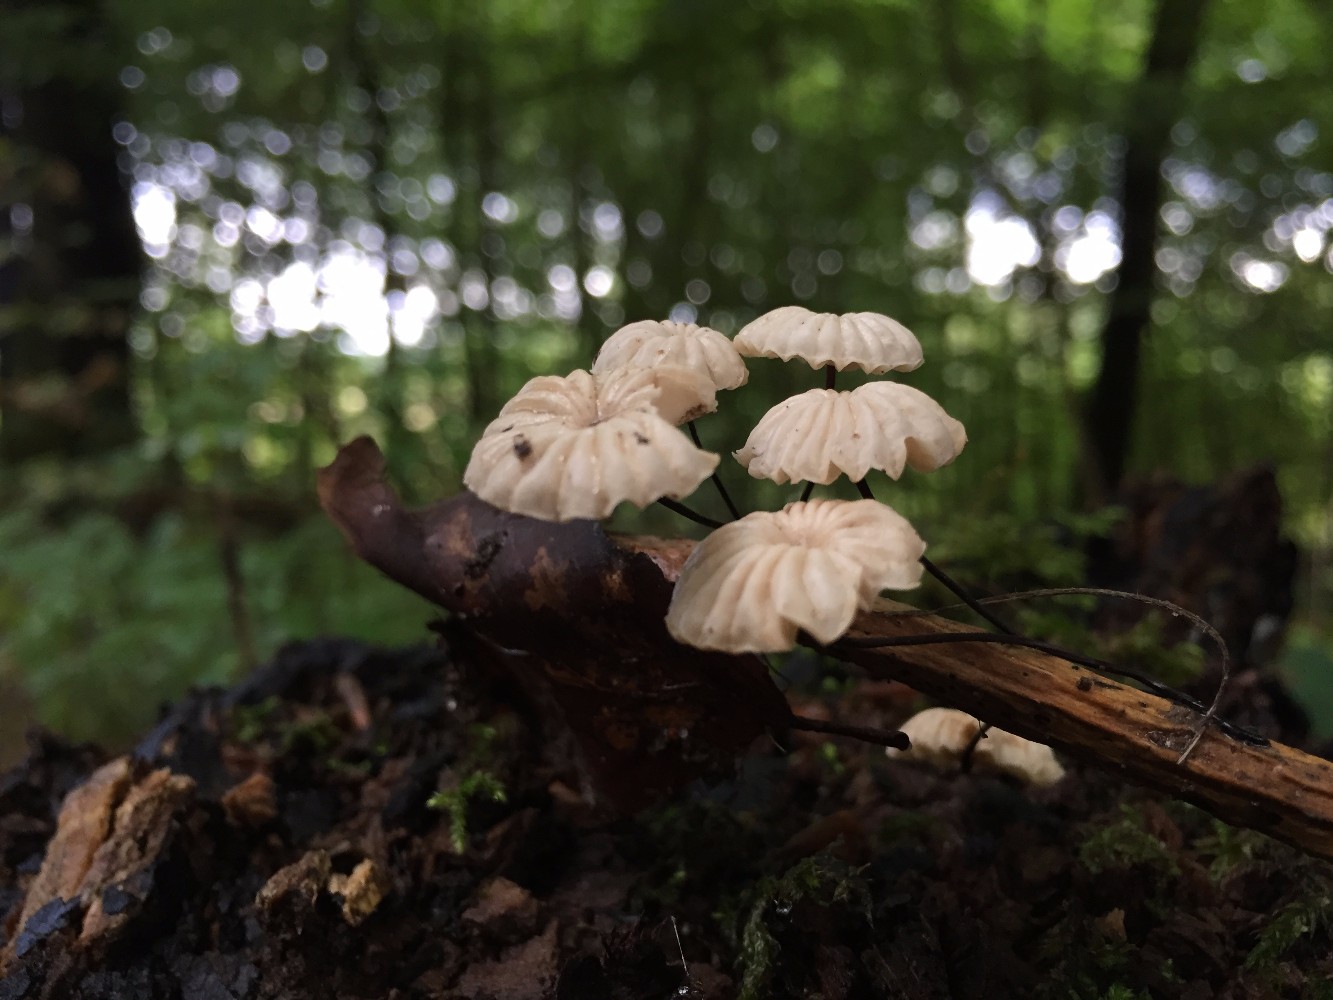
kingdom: Fungi
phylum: Basidiomycota
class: Agaricomycetes
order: Agaricales
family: Marasmiaceae
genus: Marasmius
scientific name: Marasmius rotula
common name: hjul-bruskhat
